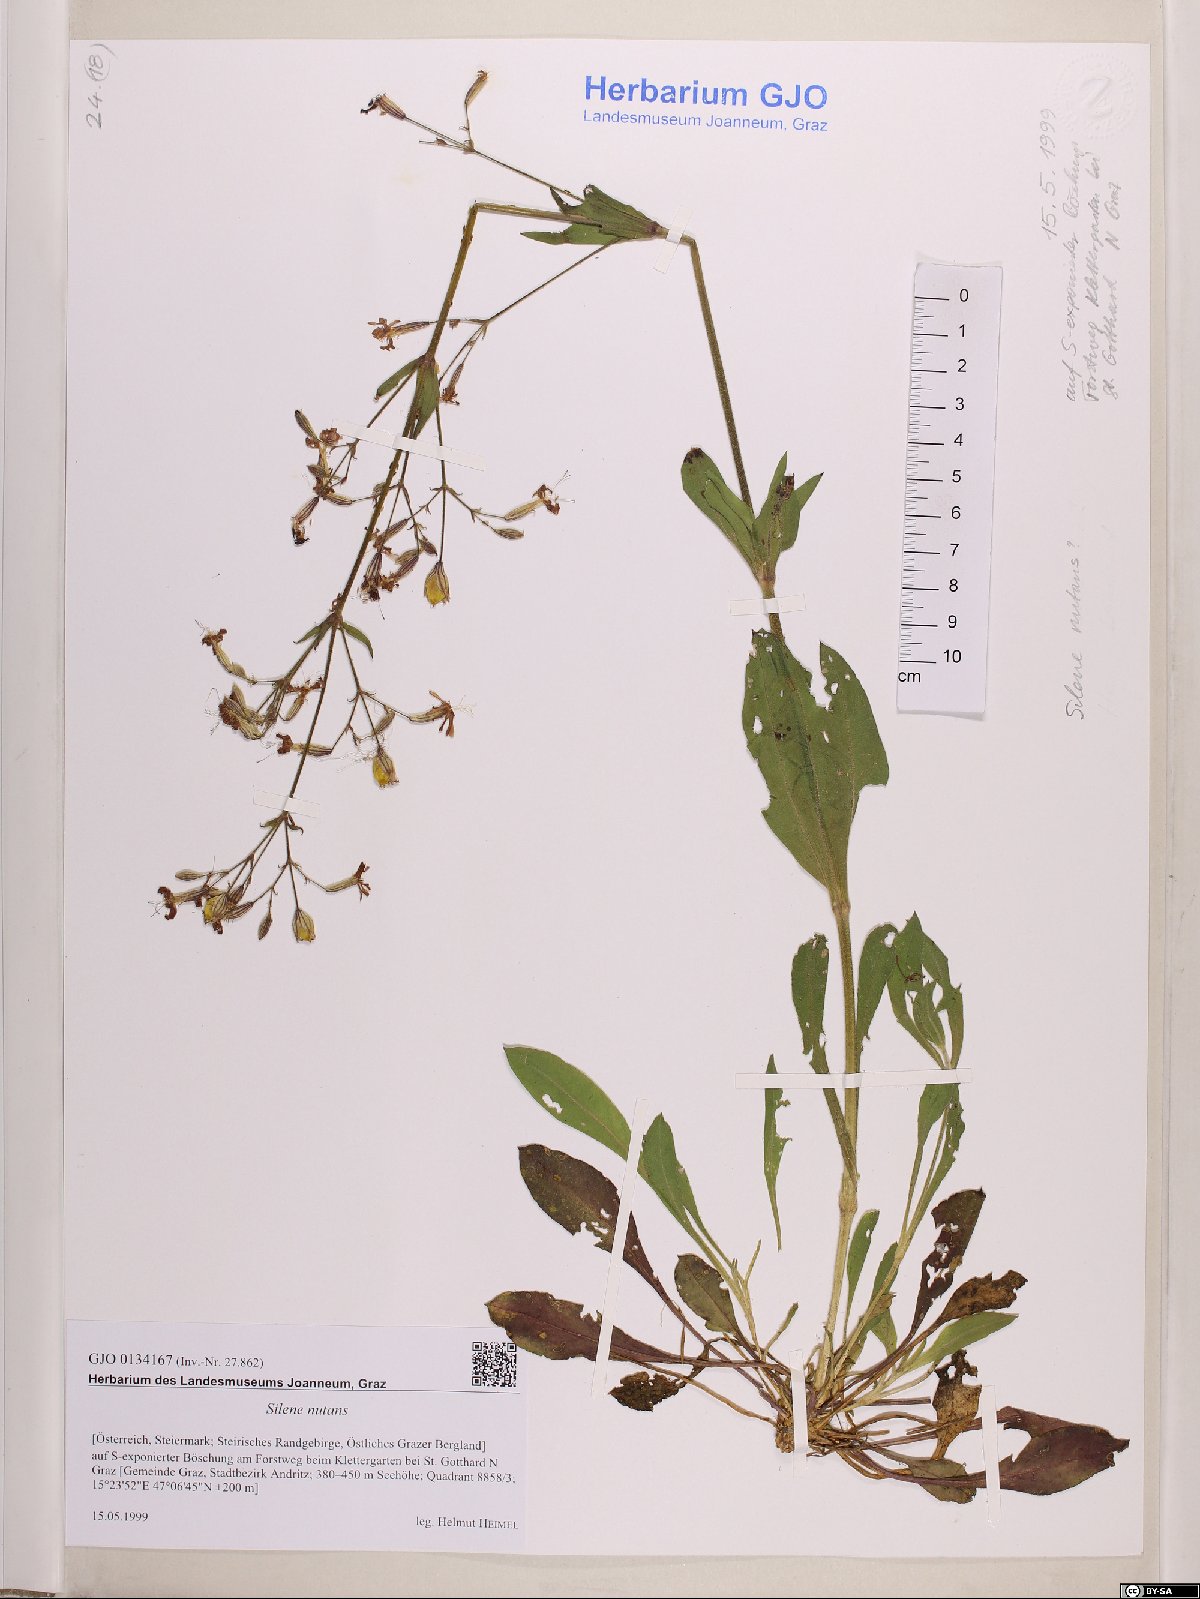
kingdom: Plantae
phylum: Tracheophyta
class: Magnoliopsida
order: Caryophyllales
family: Caryophyllaceae
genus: Silene
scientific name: Silene nutans
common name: Nottingham catchfly
